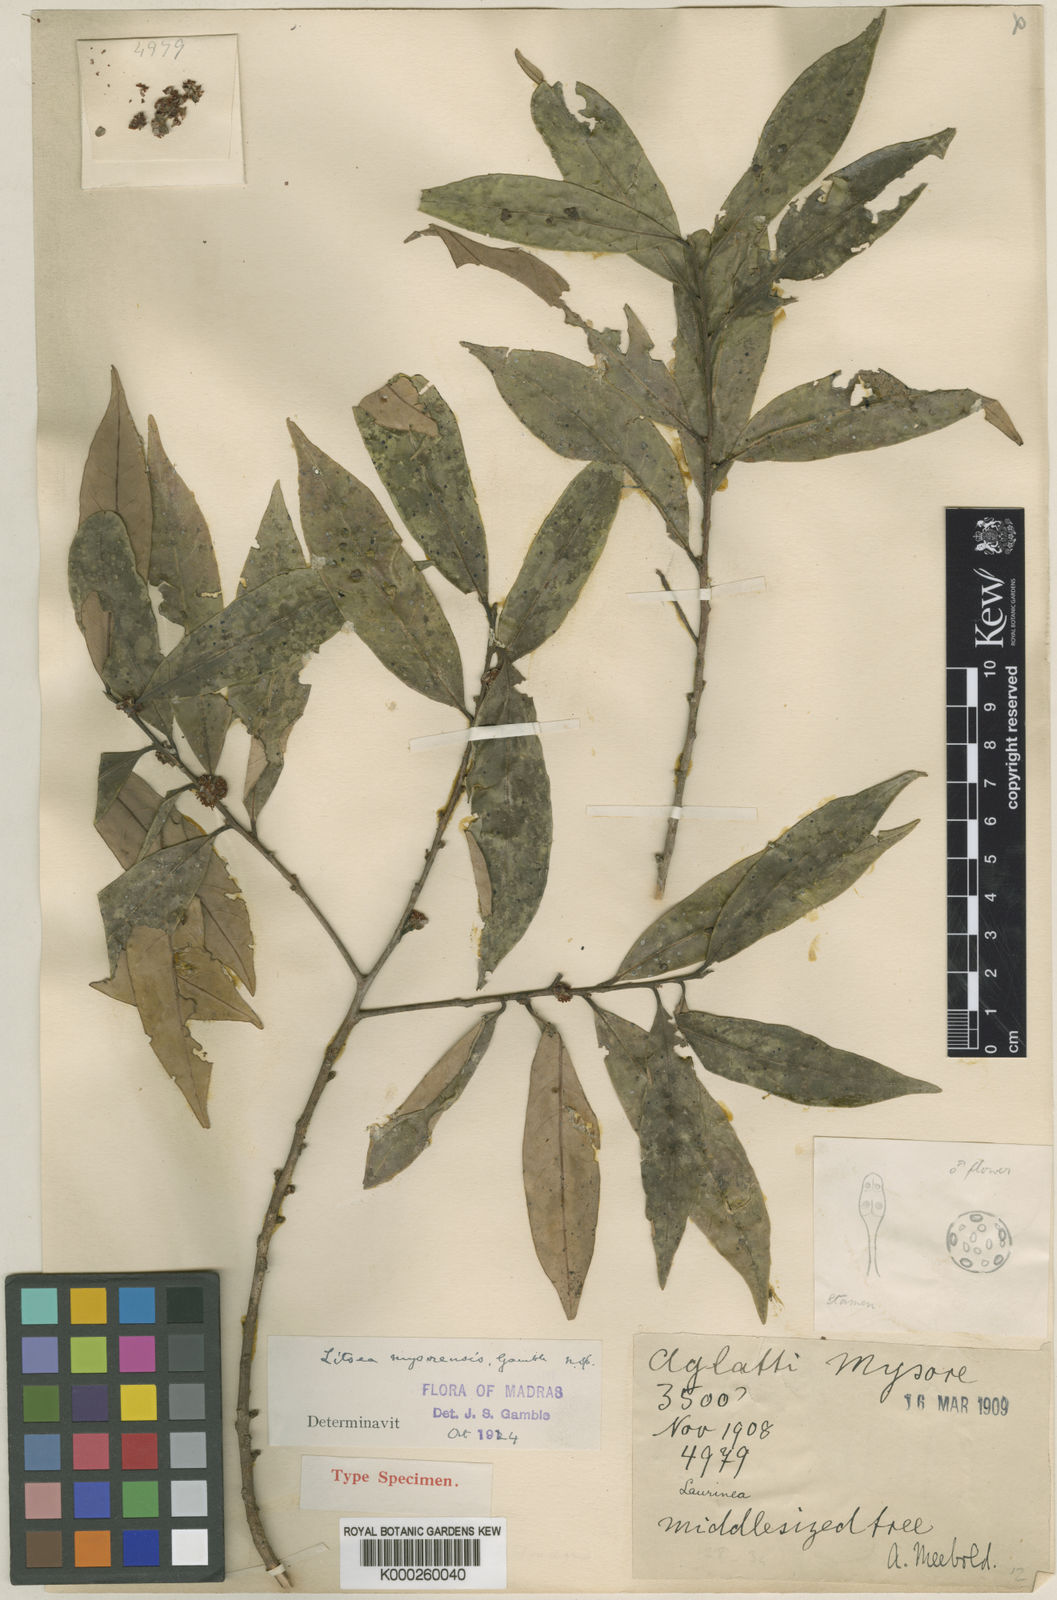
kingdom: Plantae
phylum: Tracheophyta
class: Magnoliopsida
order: Laurales
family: Lauraceae
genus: Litsea
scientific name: Litsea mysorensis
